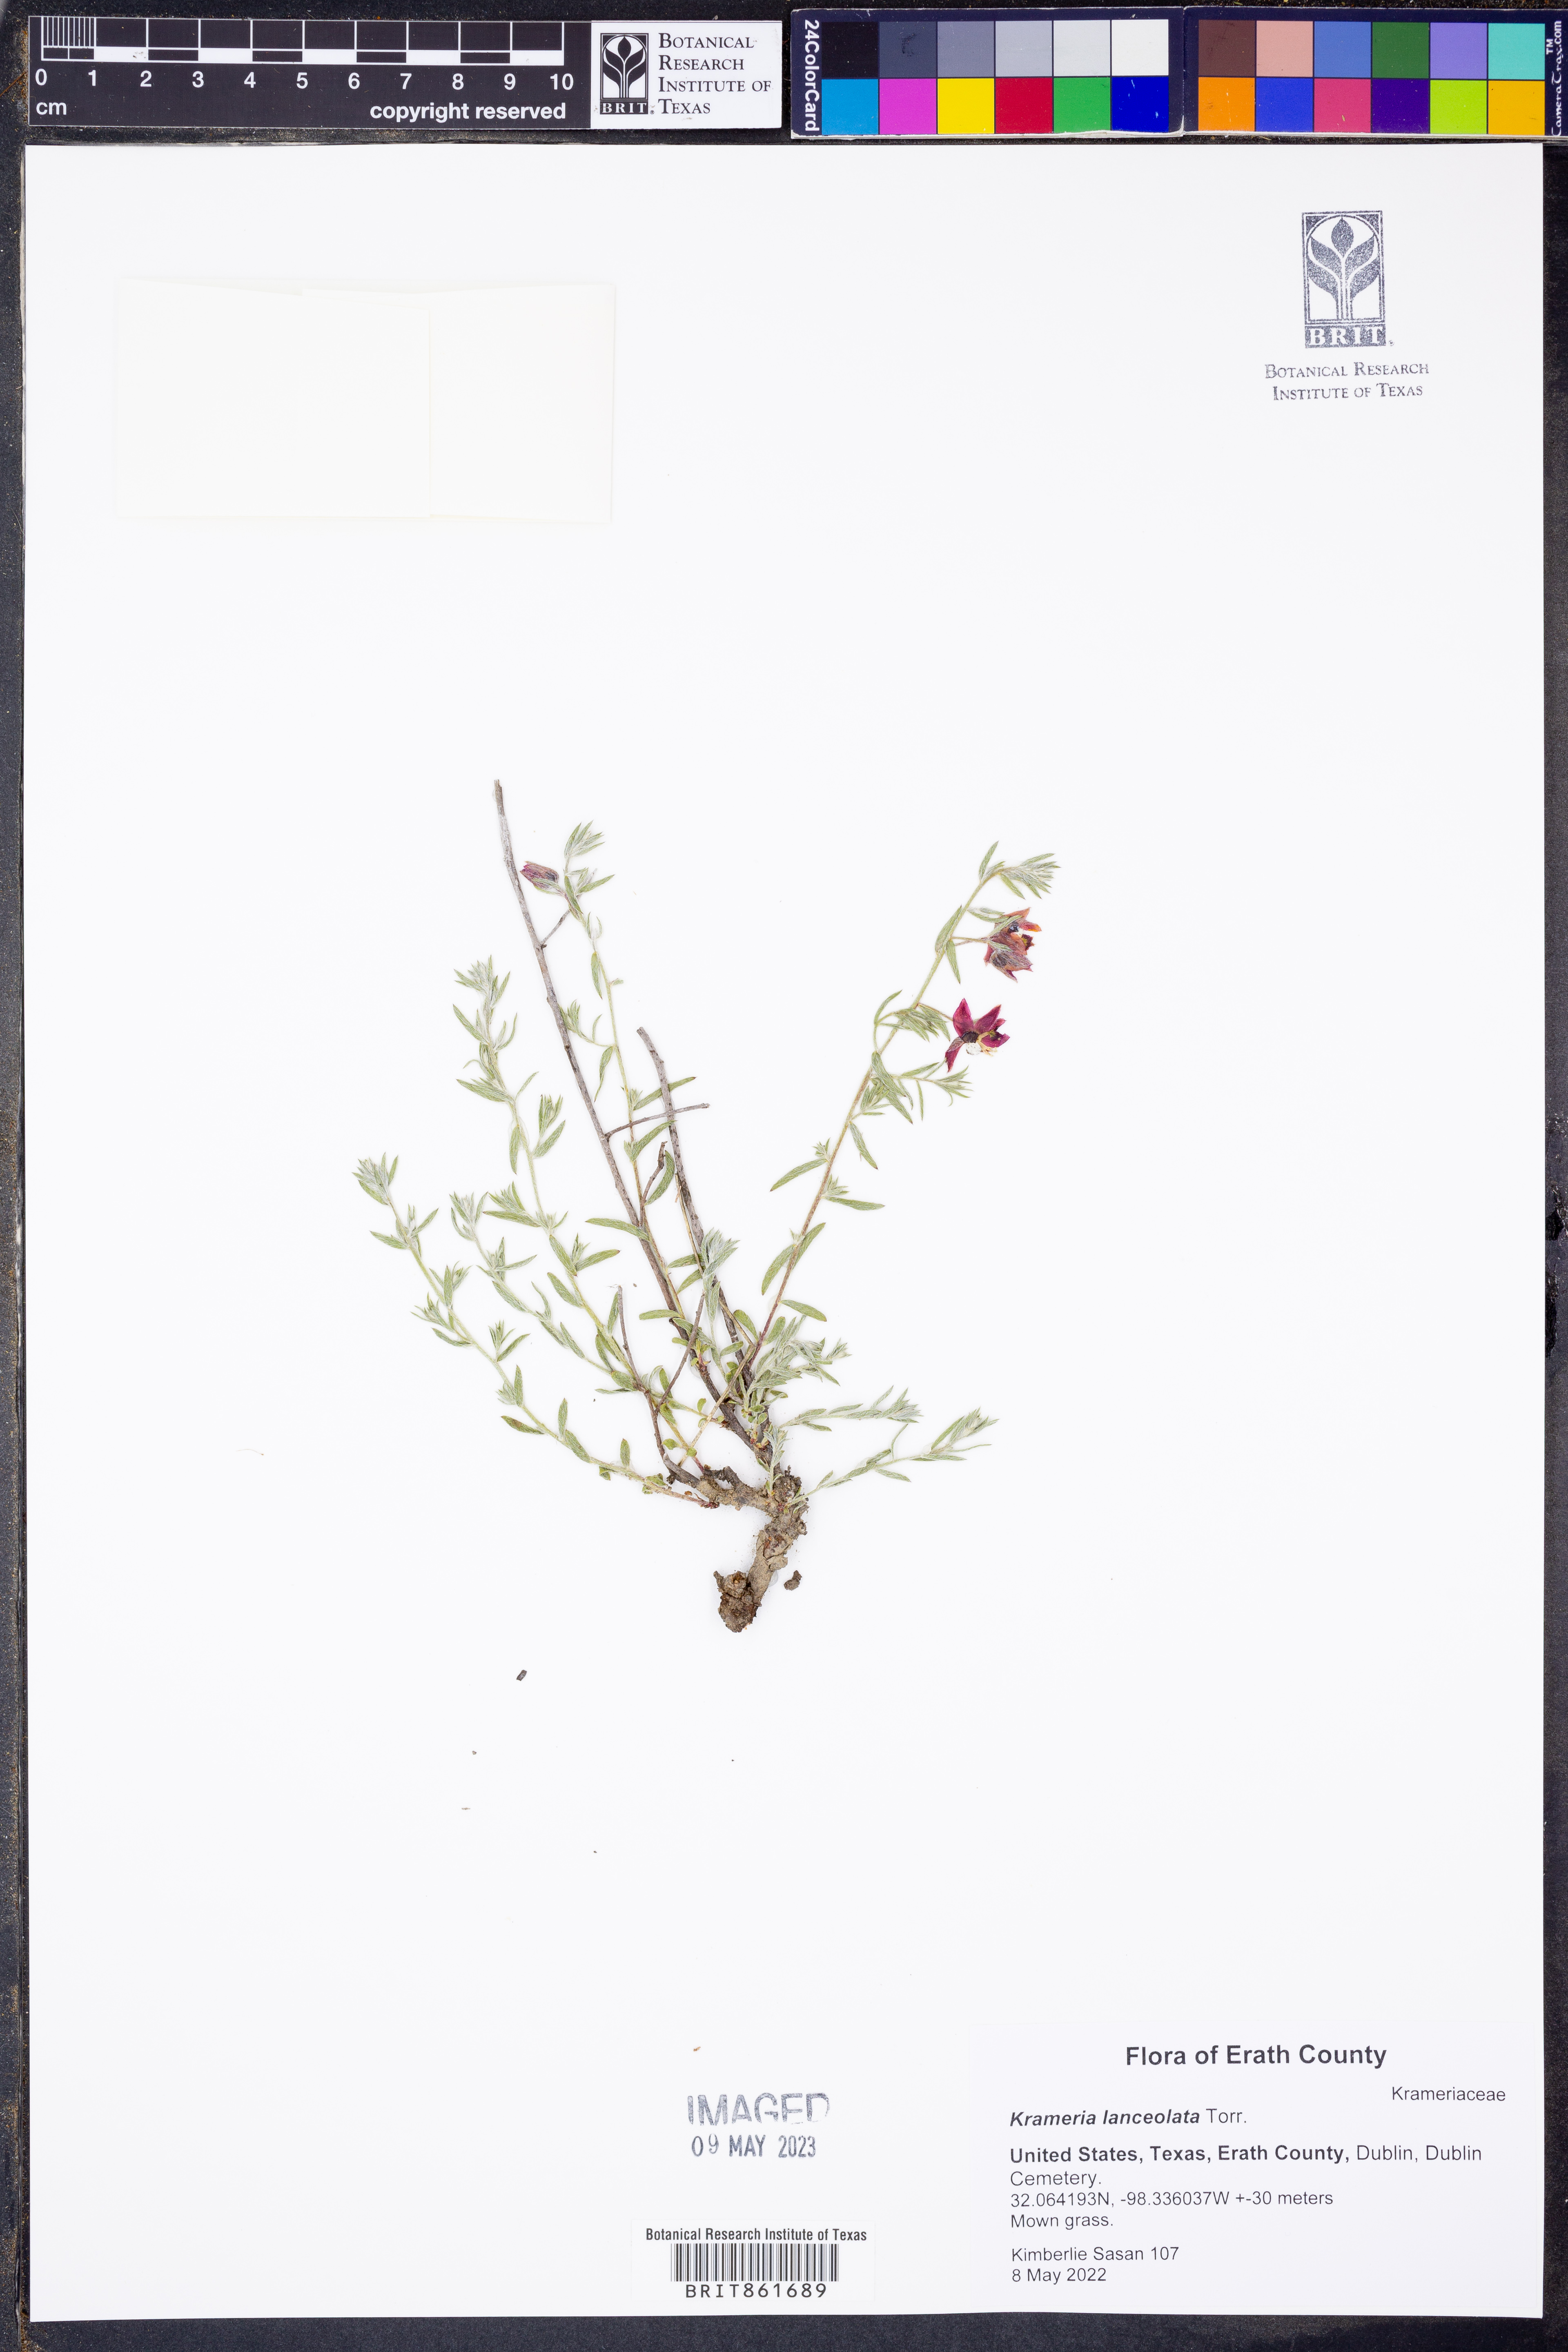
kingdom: Plantae
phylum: Tracheophyta
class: Magnoliopsida
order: Zygophyllales
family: Krameriaceae
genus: Krameria
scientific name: Krameria lanceolata
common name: Ratany
